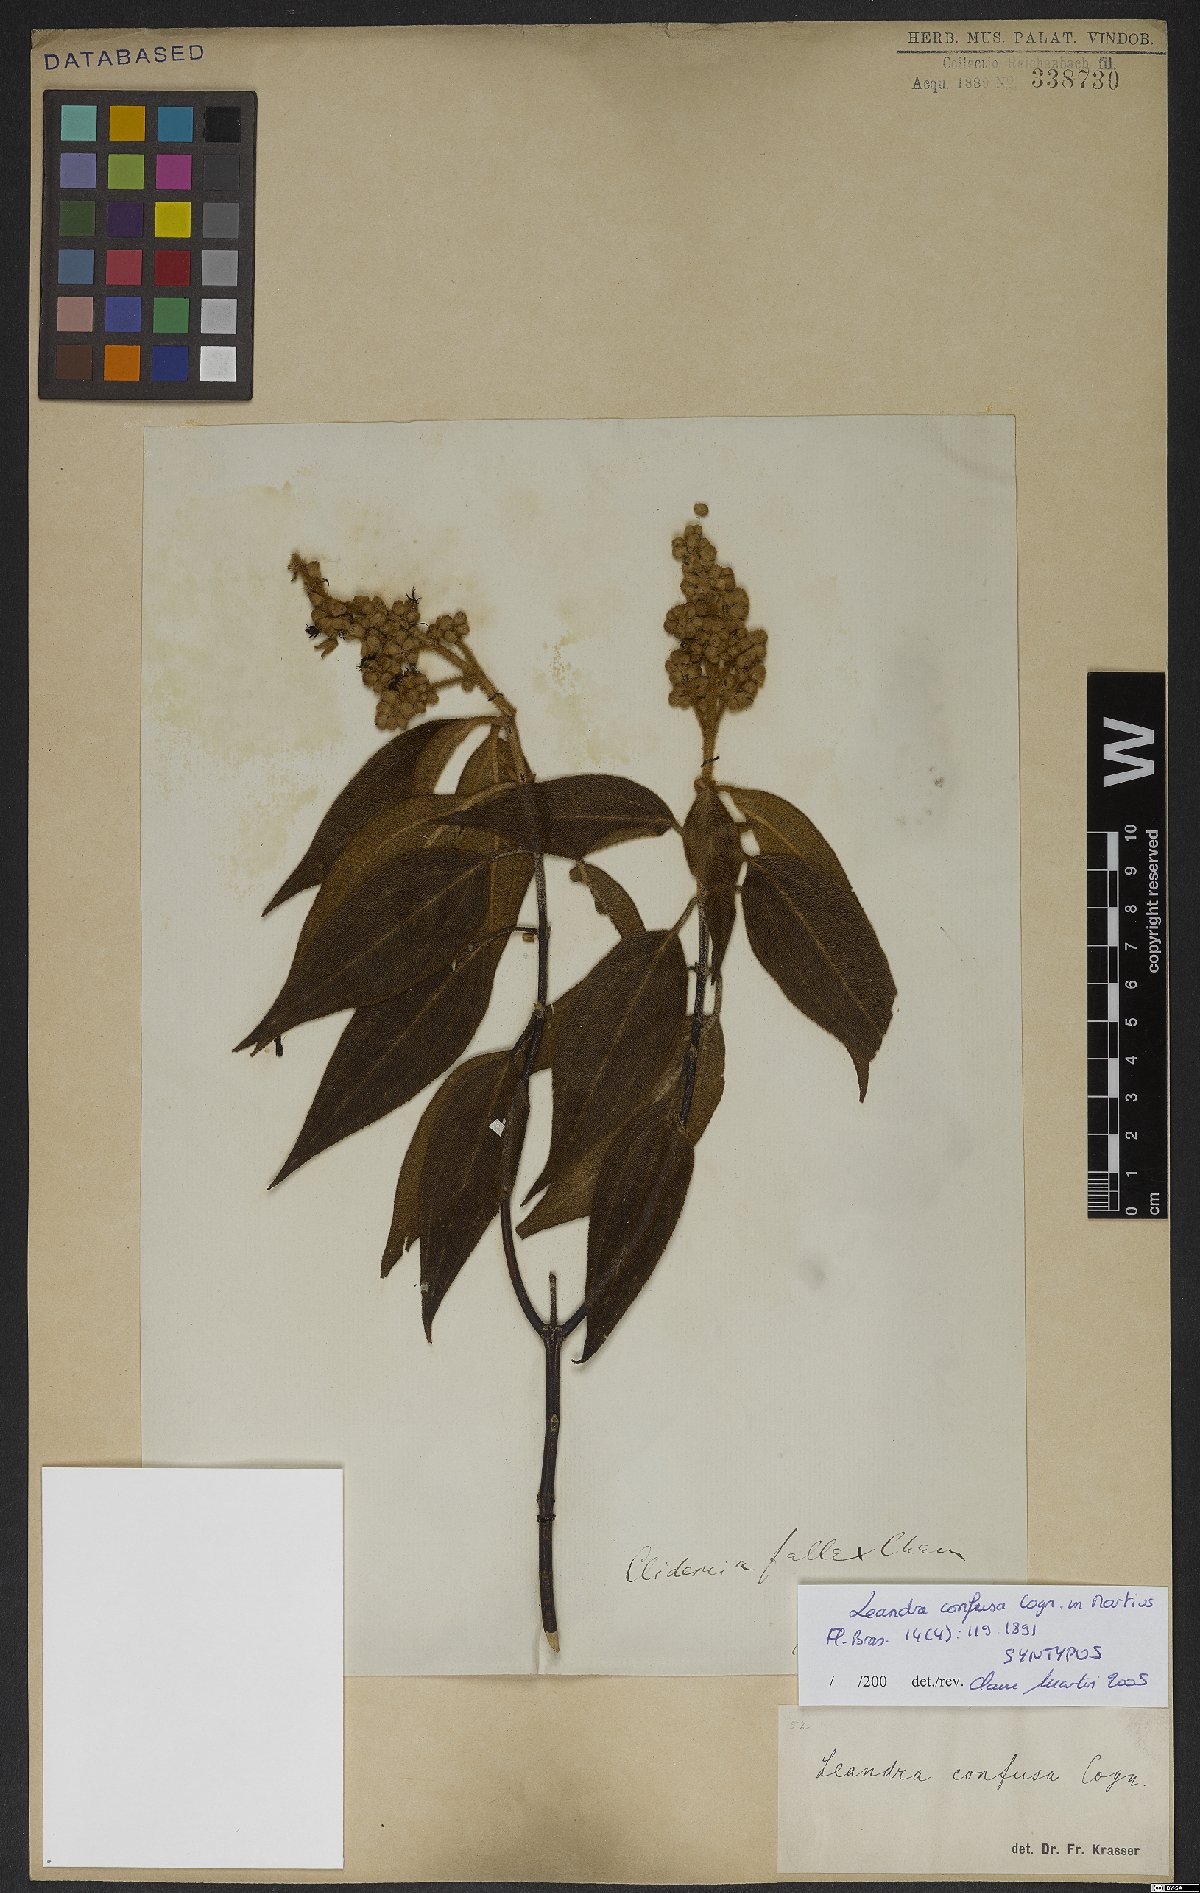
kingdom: Plantae
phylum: Tracheophyta
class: Magnoliopsida
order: Myrtales
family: Melastomataceae
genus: Miconia
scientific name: Miconia leaconfusa
